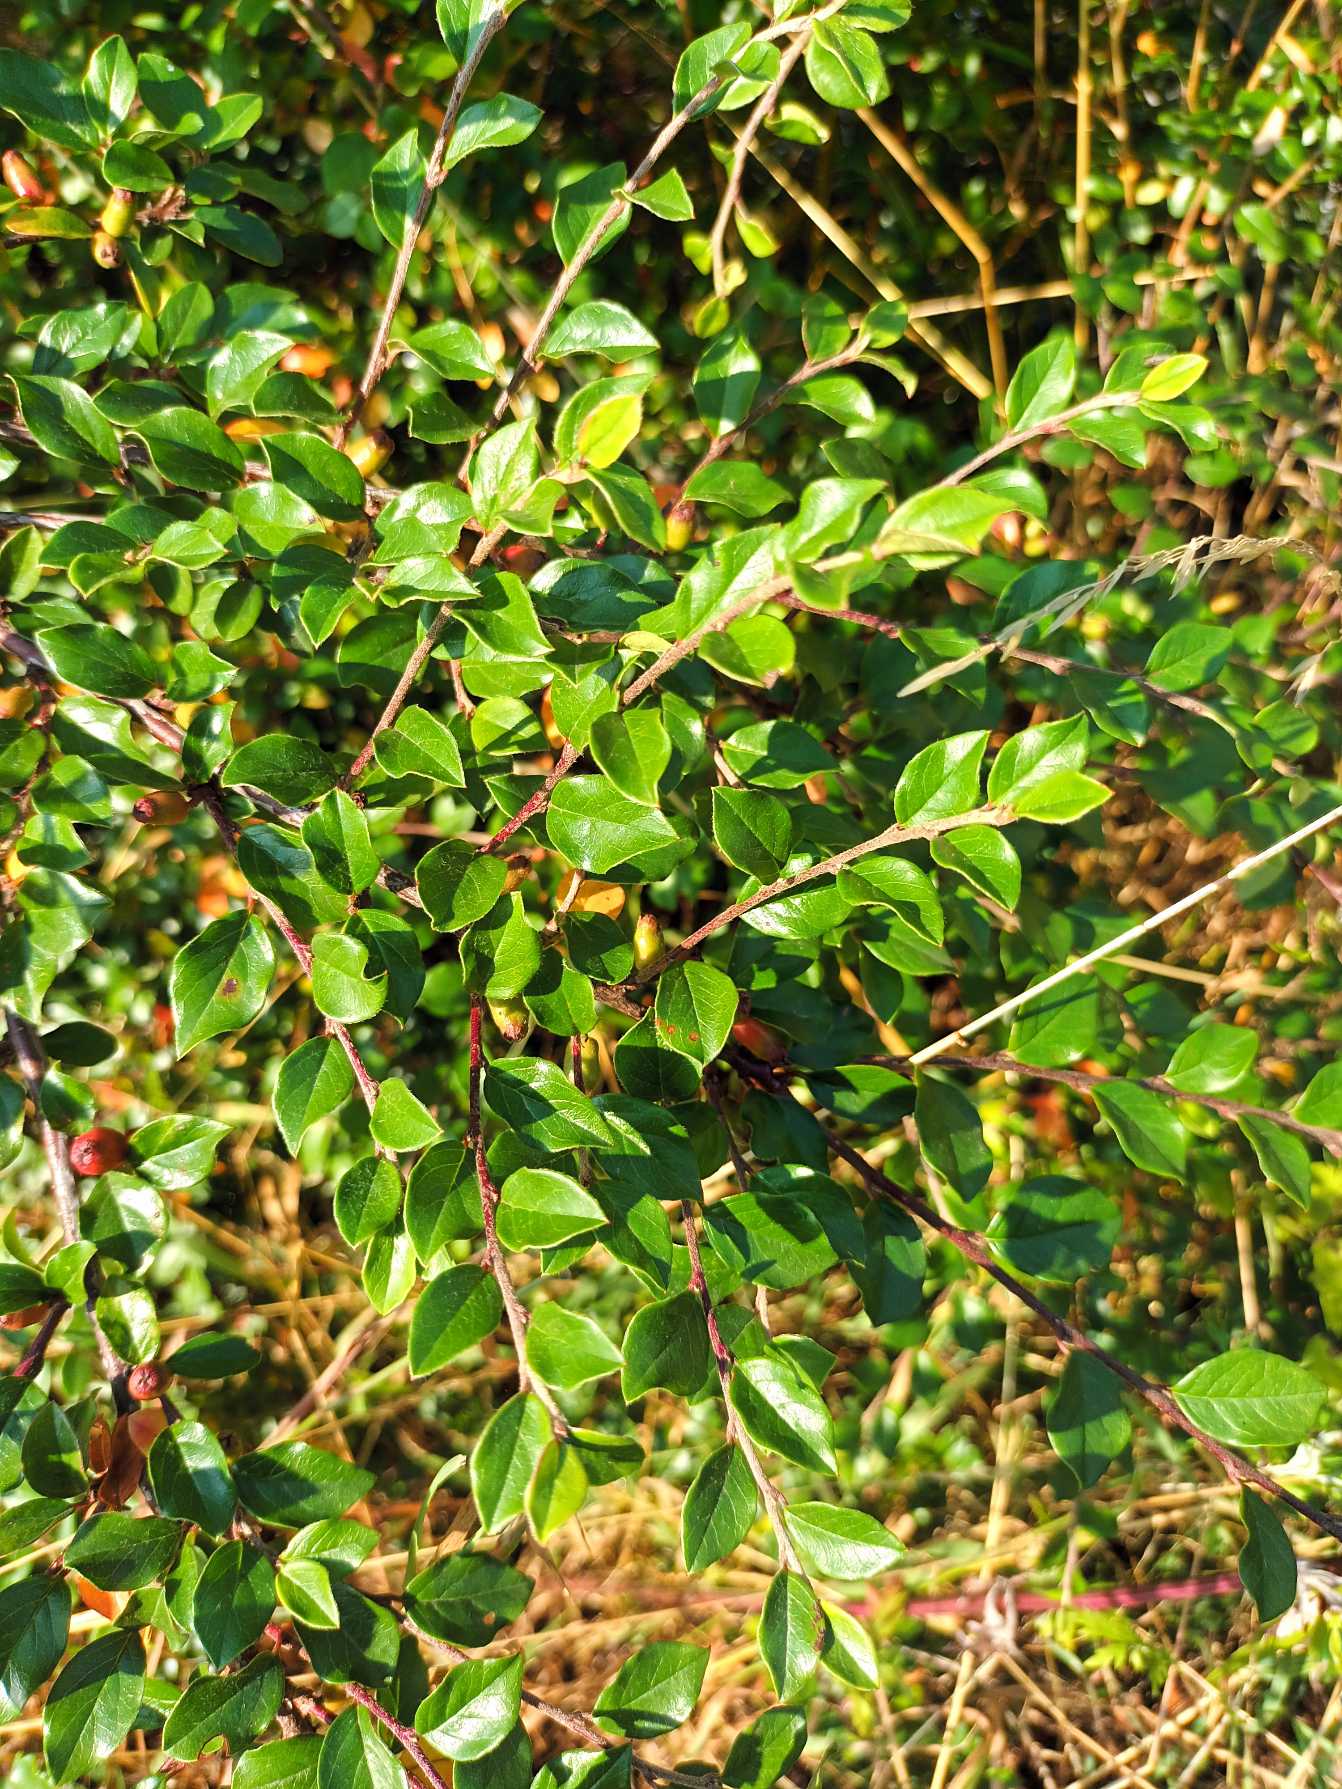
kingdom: Plantae
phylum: Tracheophyta
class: Magnoliopsida
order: Rosales
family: Rosaceae
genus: Cotoneaster
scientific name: Cotoneaster divaricatus
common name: Vifte-dværgmispel
